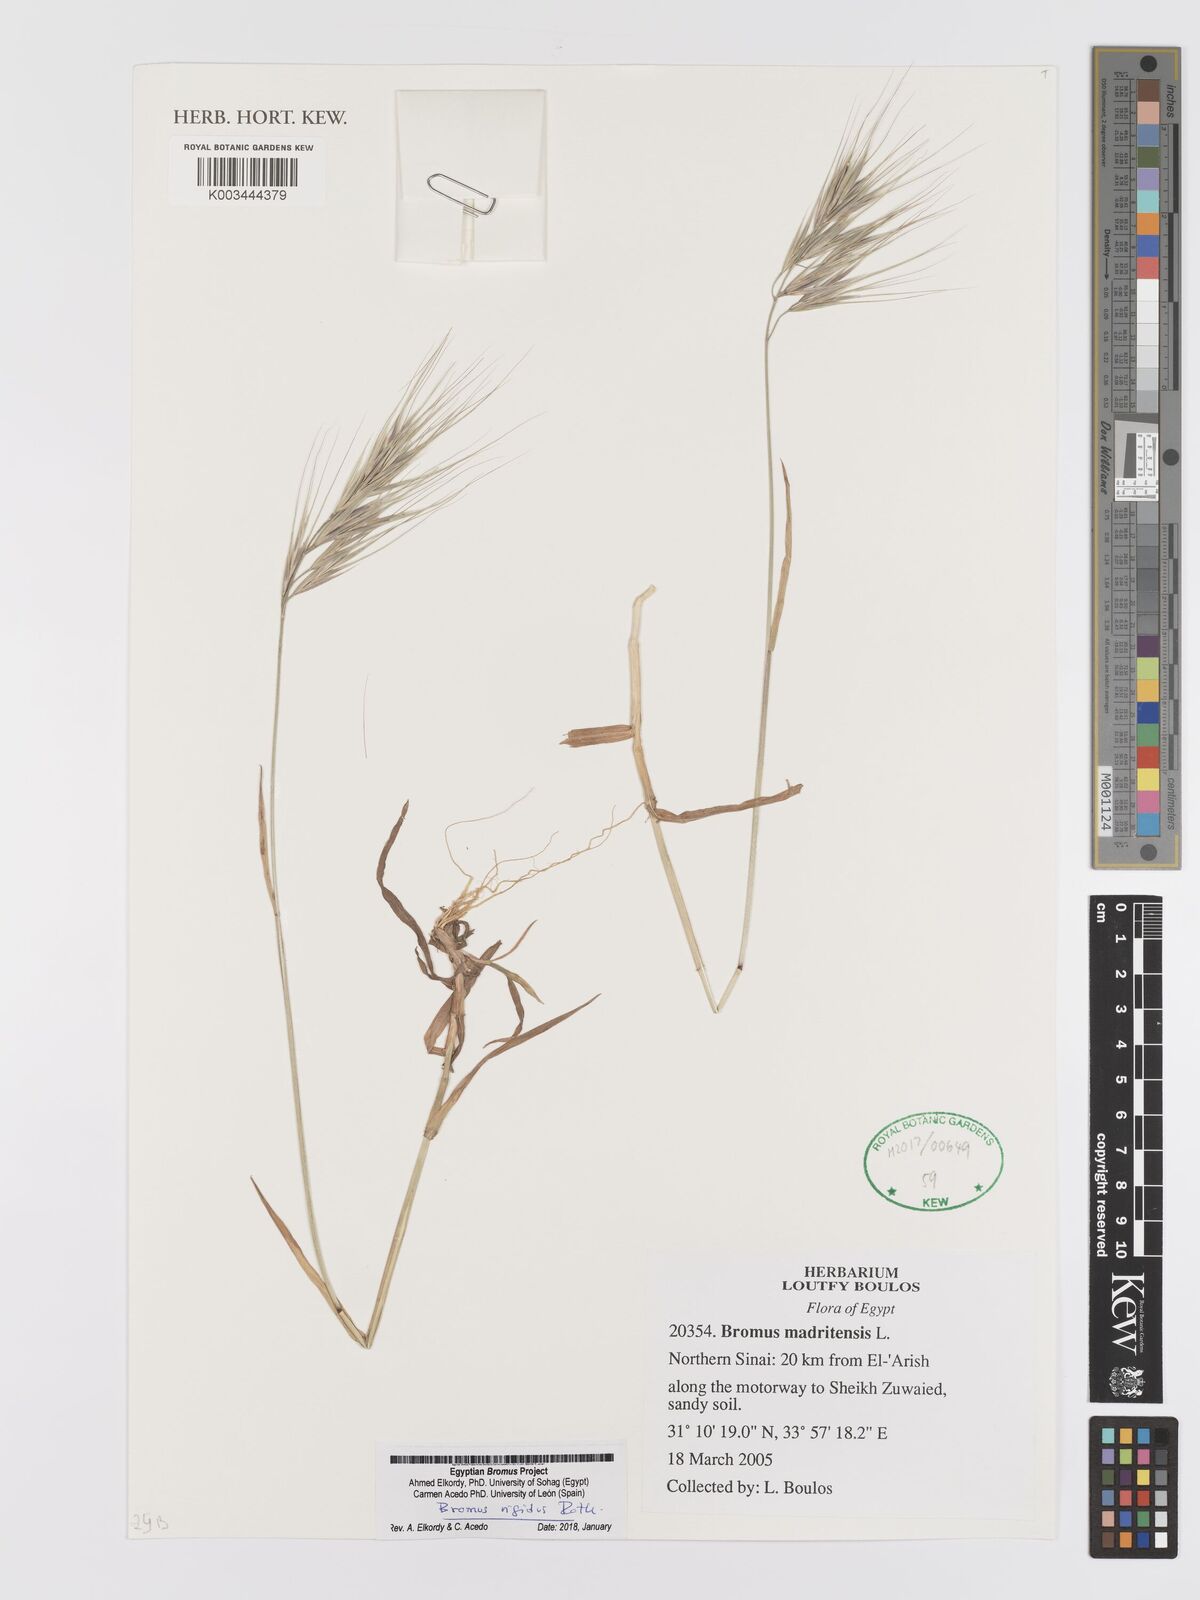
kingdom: Plantae
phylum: Tracheophyta
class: Liliopsida
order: Poales
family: Poaceae
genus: Bromus
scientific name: Bromus
